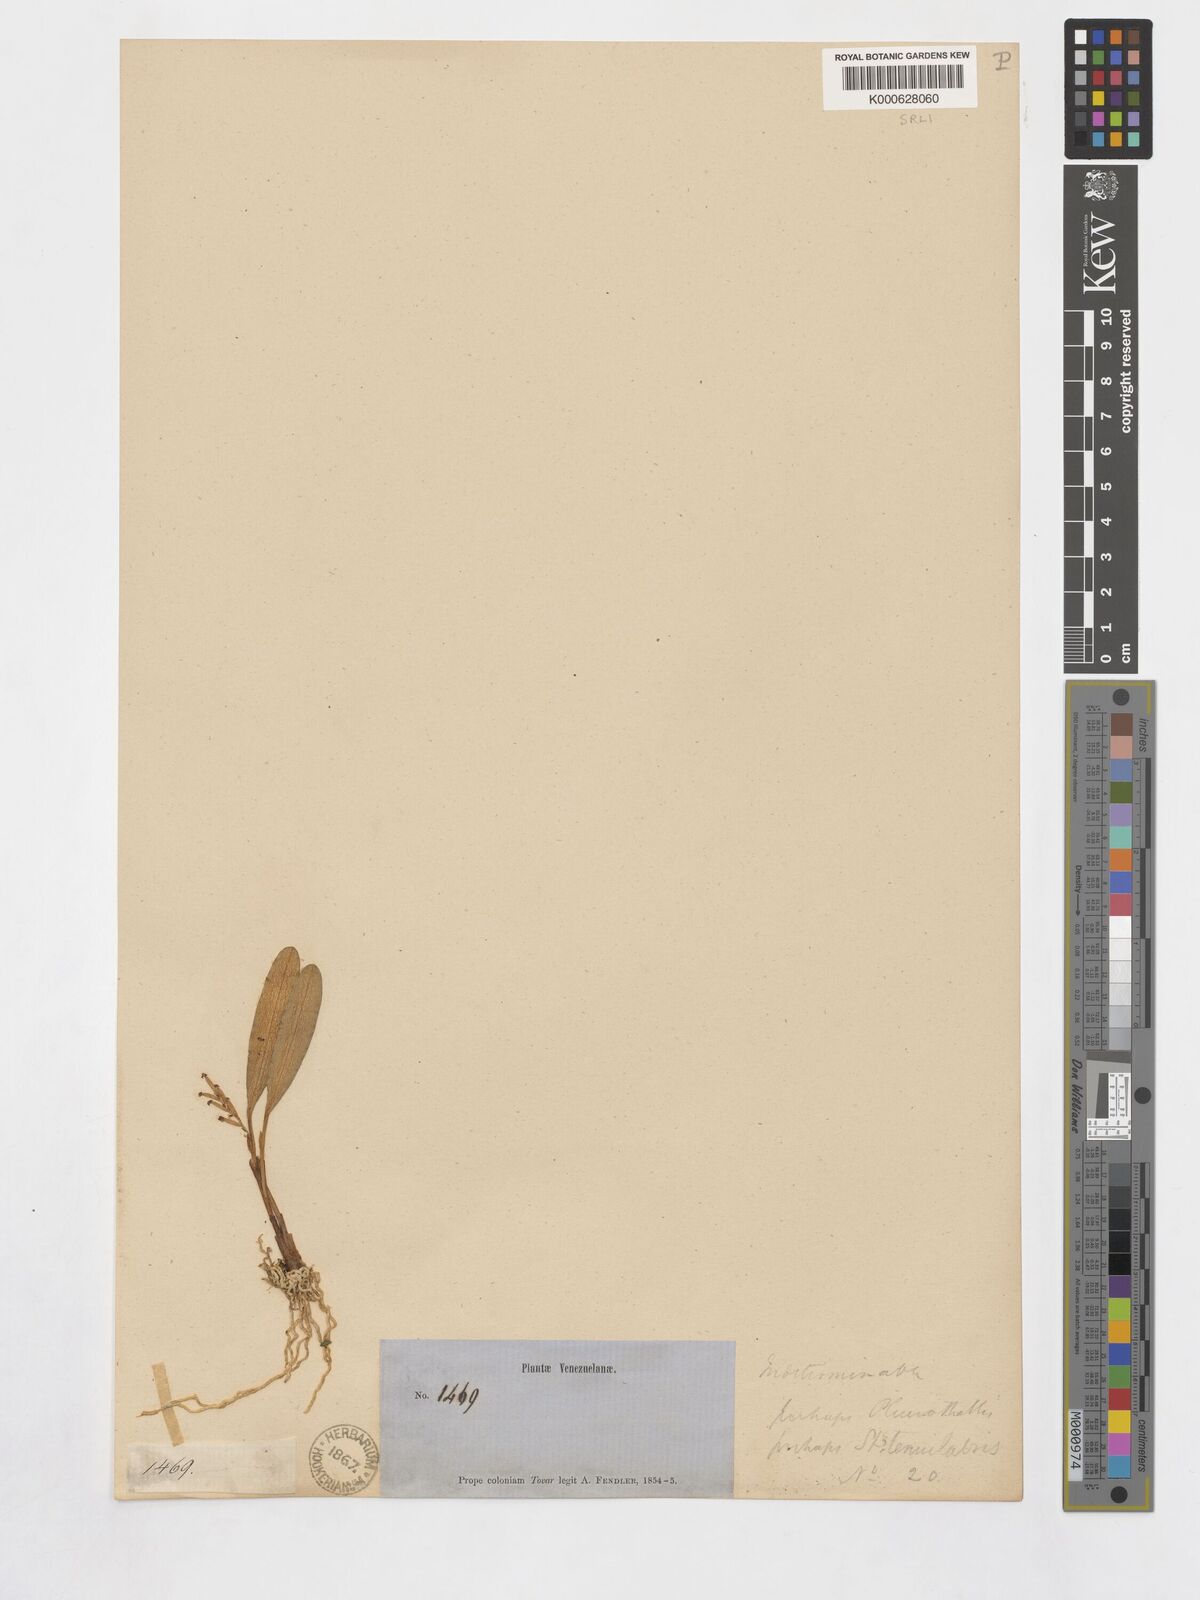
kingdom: Plantae
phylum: Tracheophyta
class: Liliopsida
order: Asparagales
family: Orchidaceae
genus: Stelis
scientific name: Stelis tenuilabris
